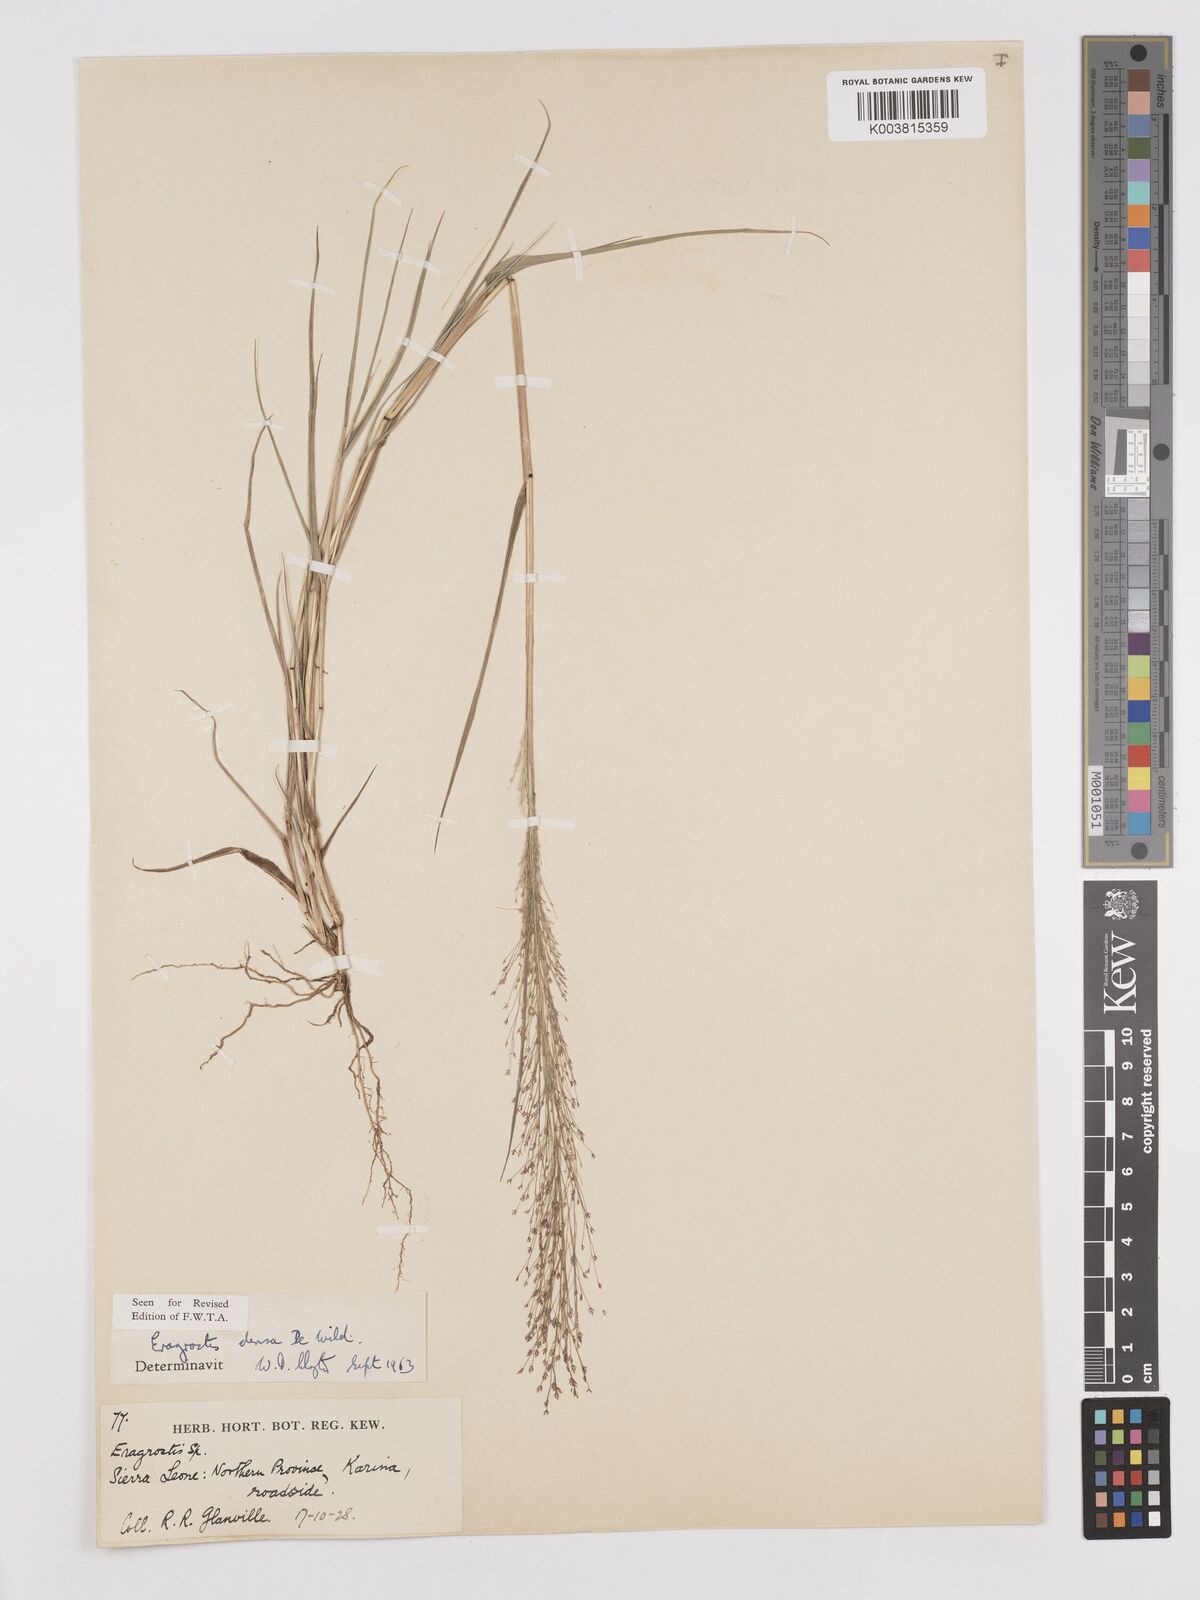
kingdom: Plantae
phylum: Tracheophyta
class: Liliopsida
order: Poales
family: Poaceae
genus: Eragrostis
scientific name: Eragrostis welwitschii
